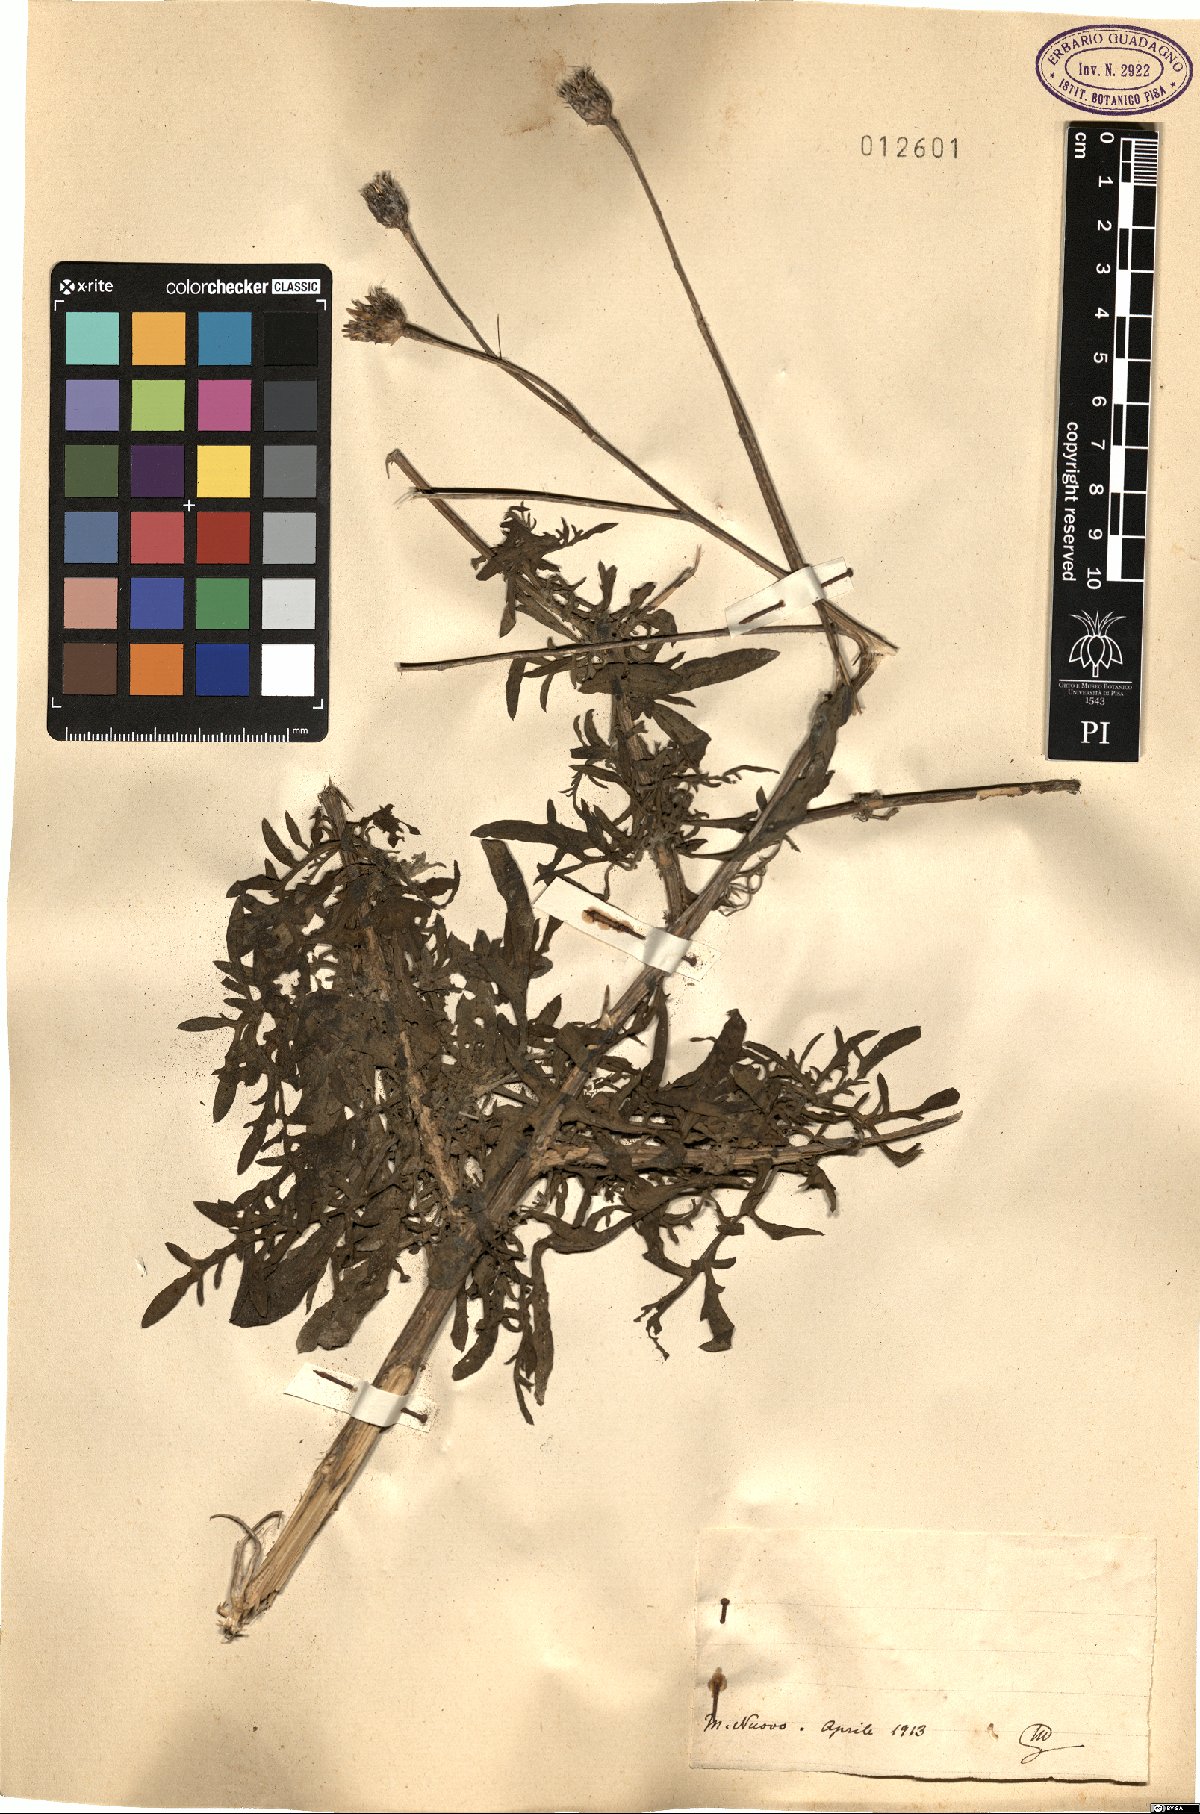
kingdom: Plantae
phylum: Tracheophyta
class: Magnoliopsida
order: Asterales
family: Asteraceae
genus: Centaurea
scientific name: Centaurea
